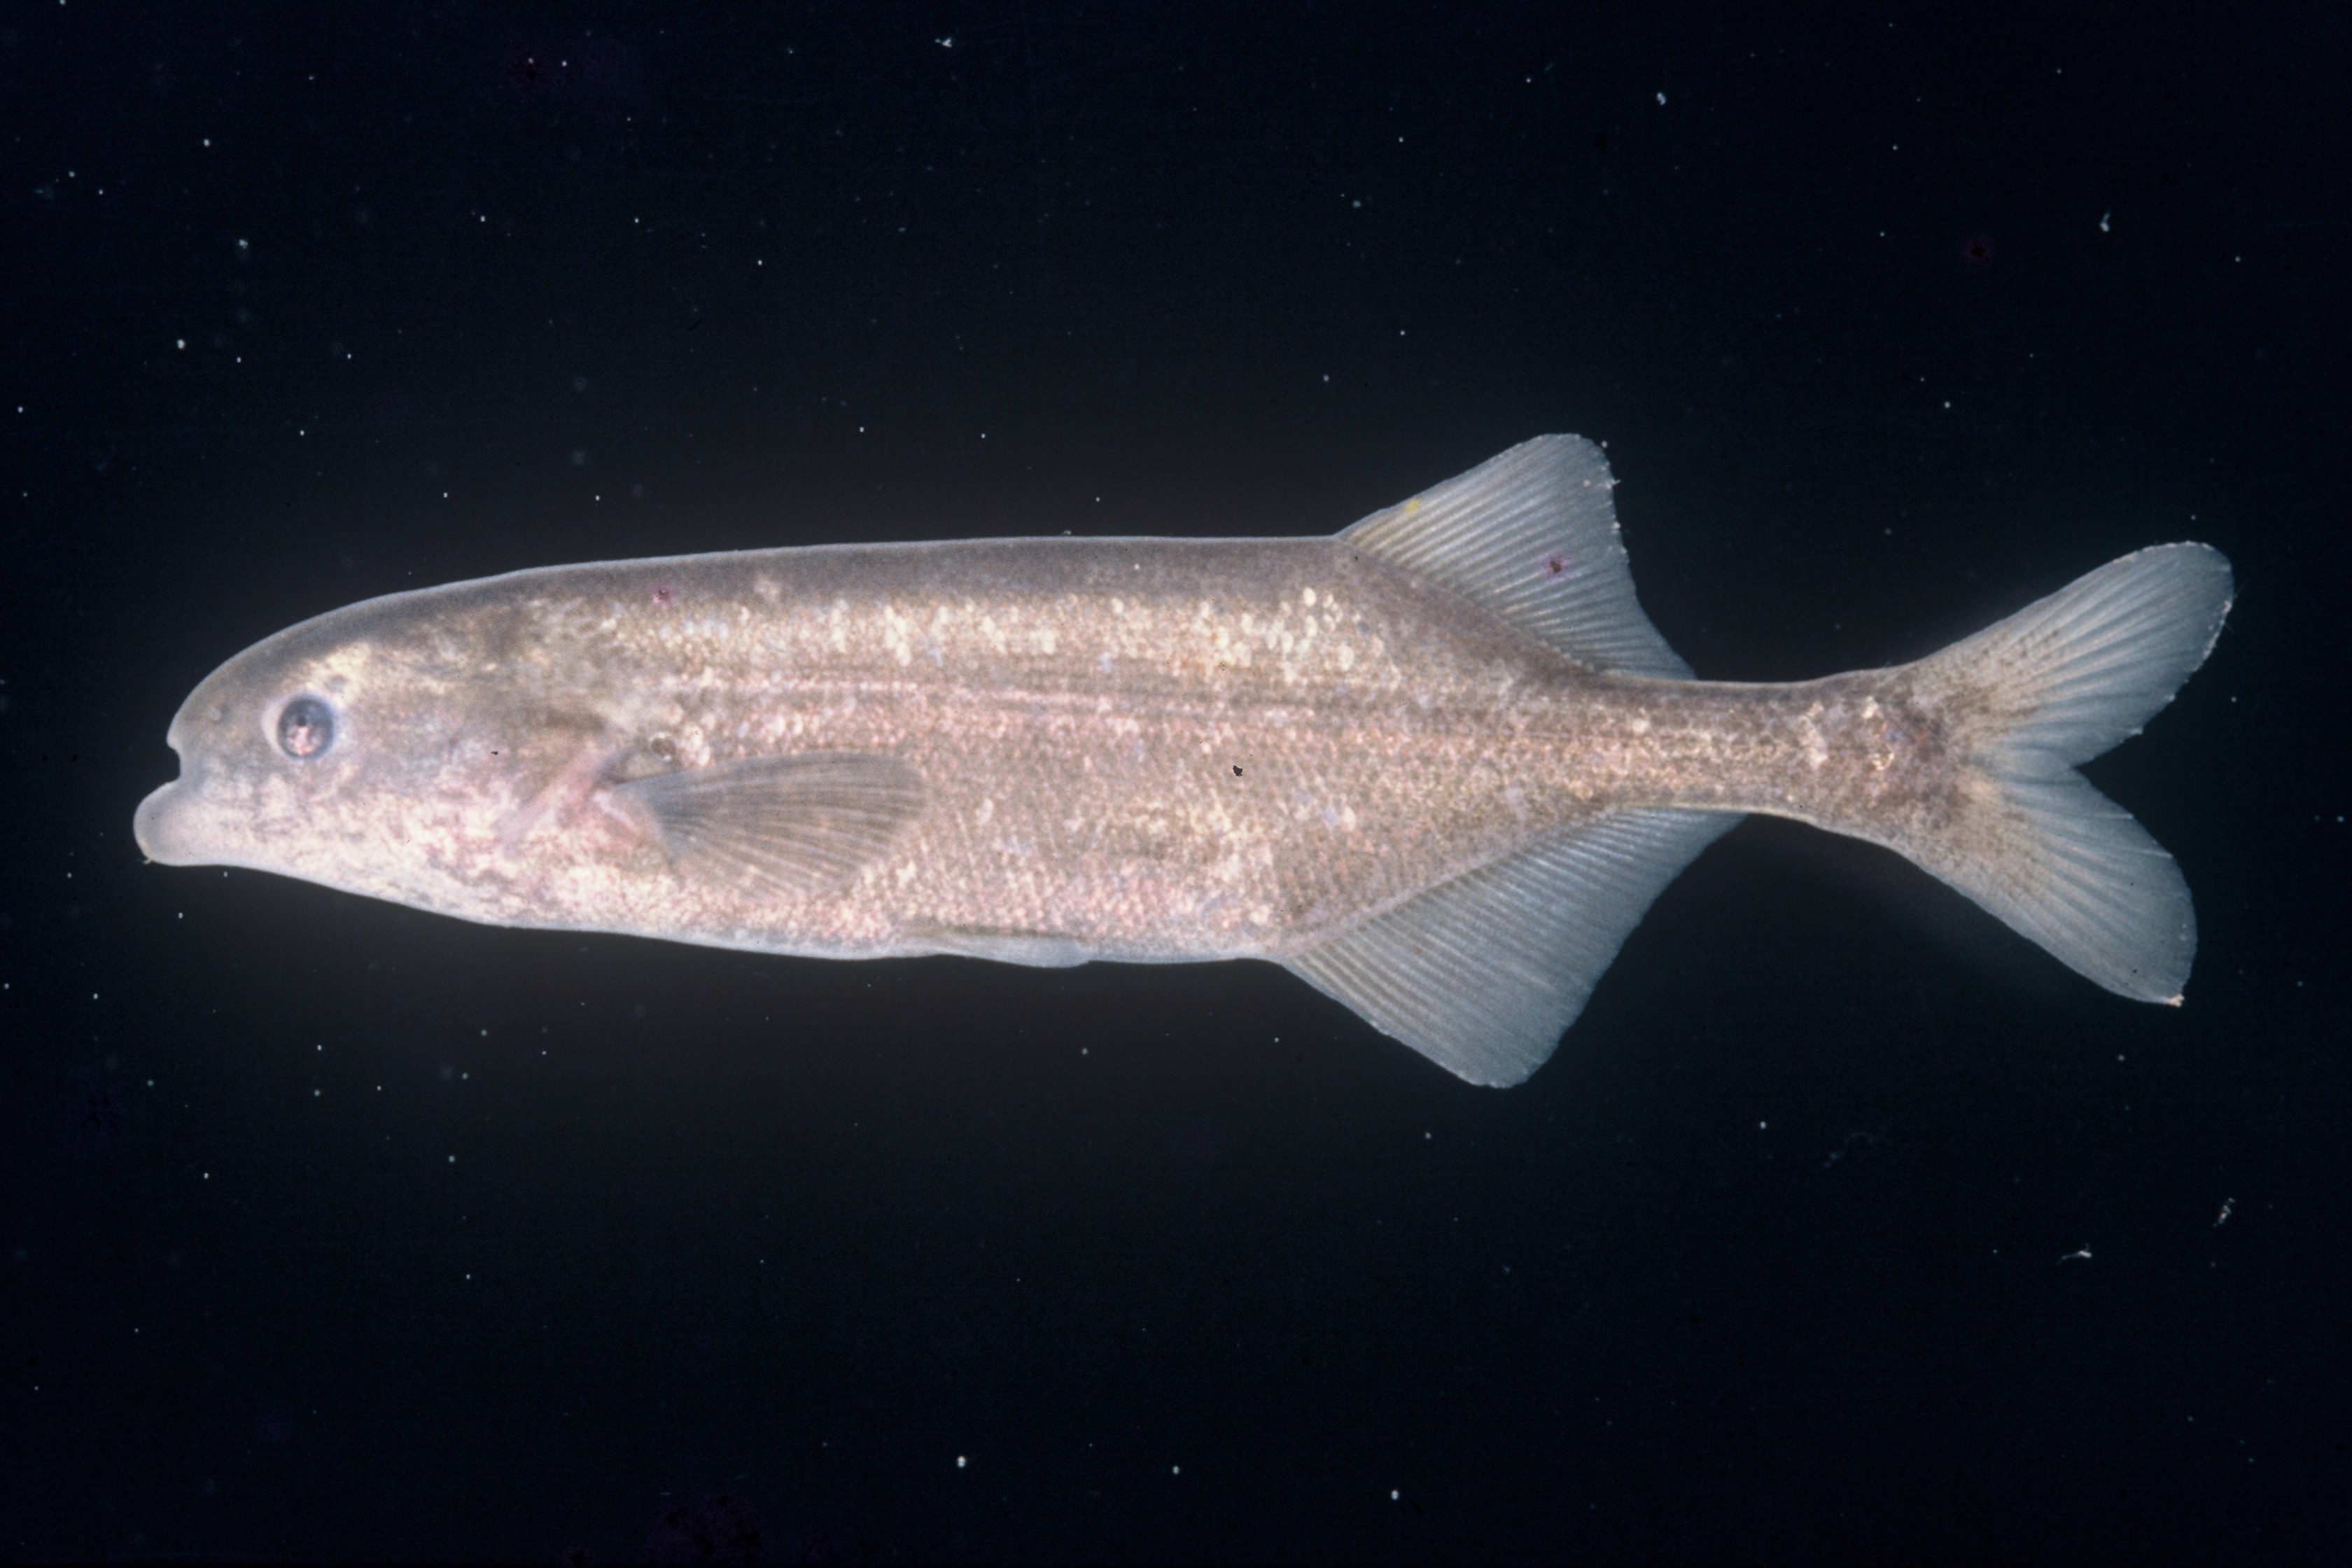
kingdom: Animalia
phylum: Chordata
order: Osteoglossiformes
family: Mormyridae
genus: Marcusenius
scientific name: Marcusenius
